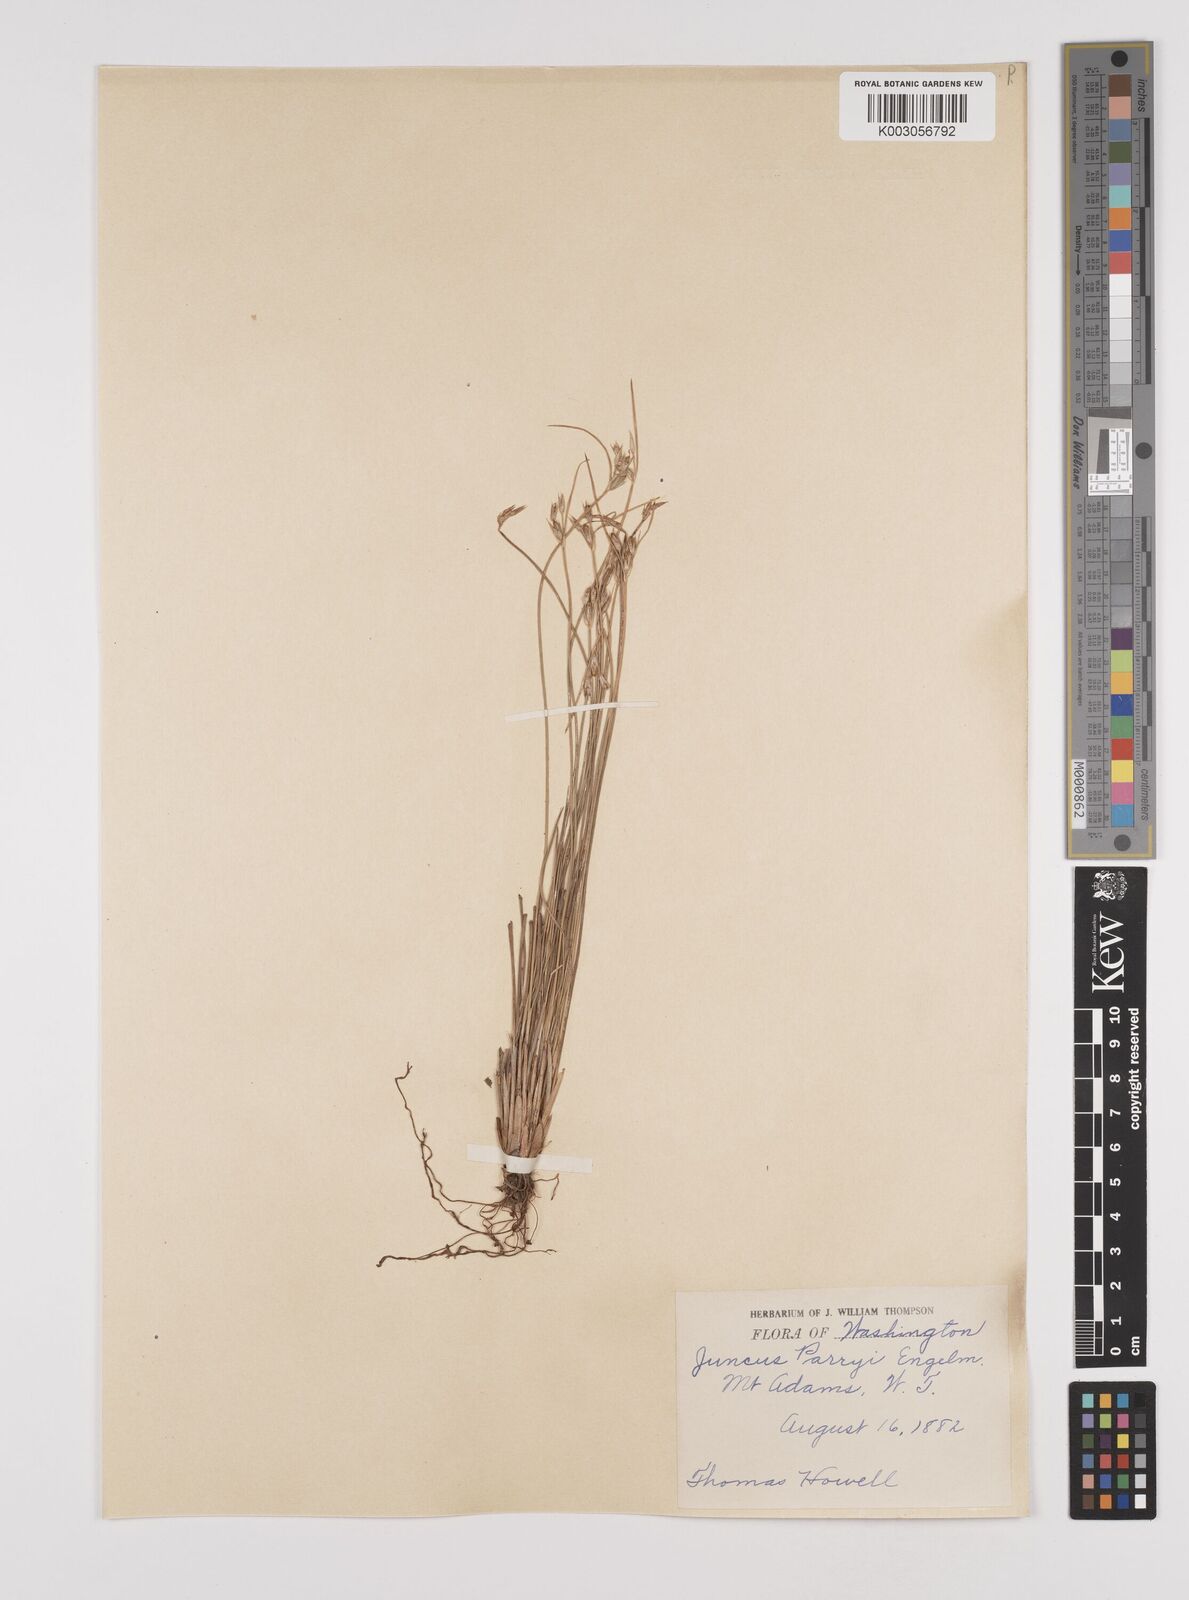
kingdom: Plantae
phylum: Tracheophyta
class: Liliopsida
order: Poales
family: Juncaceae
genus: Juncus
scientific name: Juncus parryi
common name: Parry's rush
